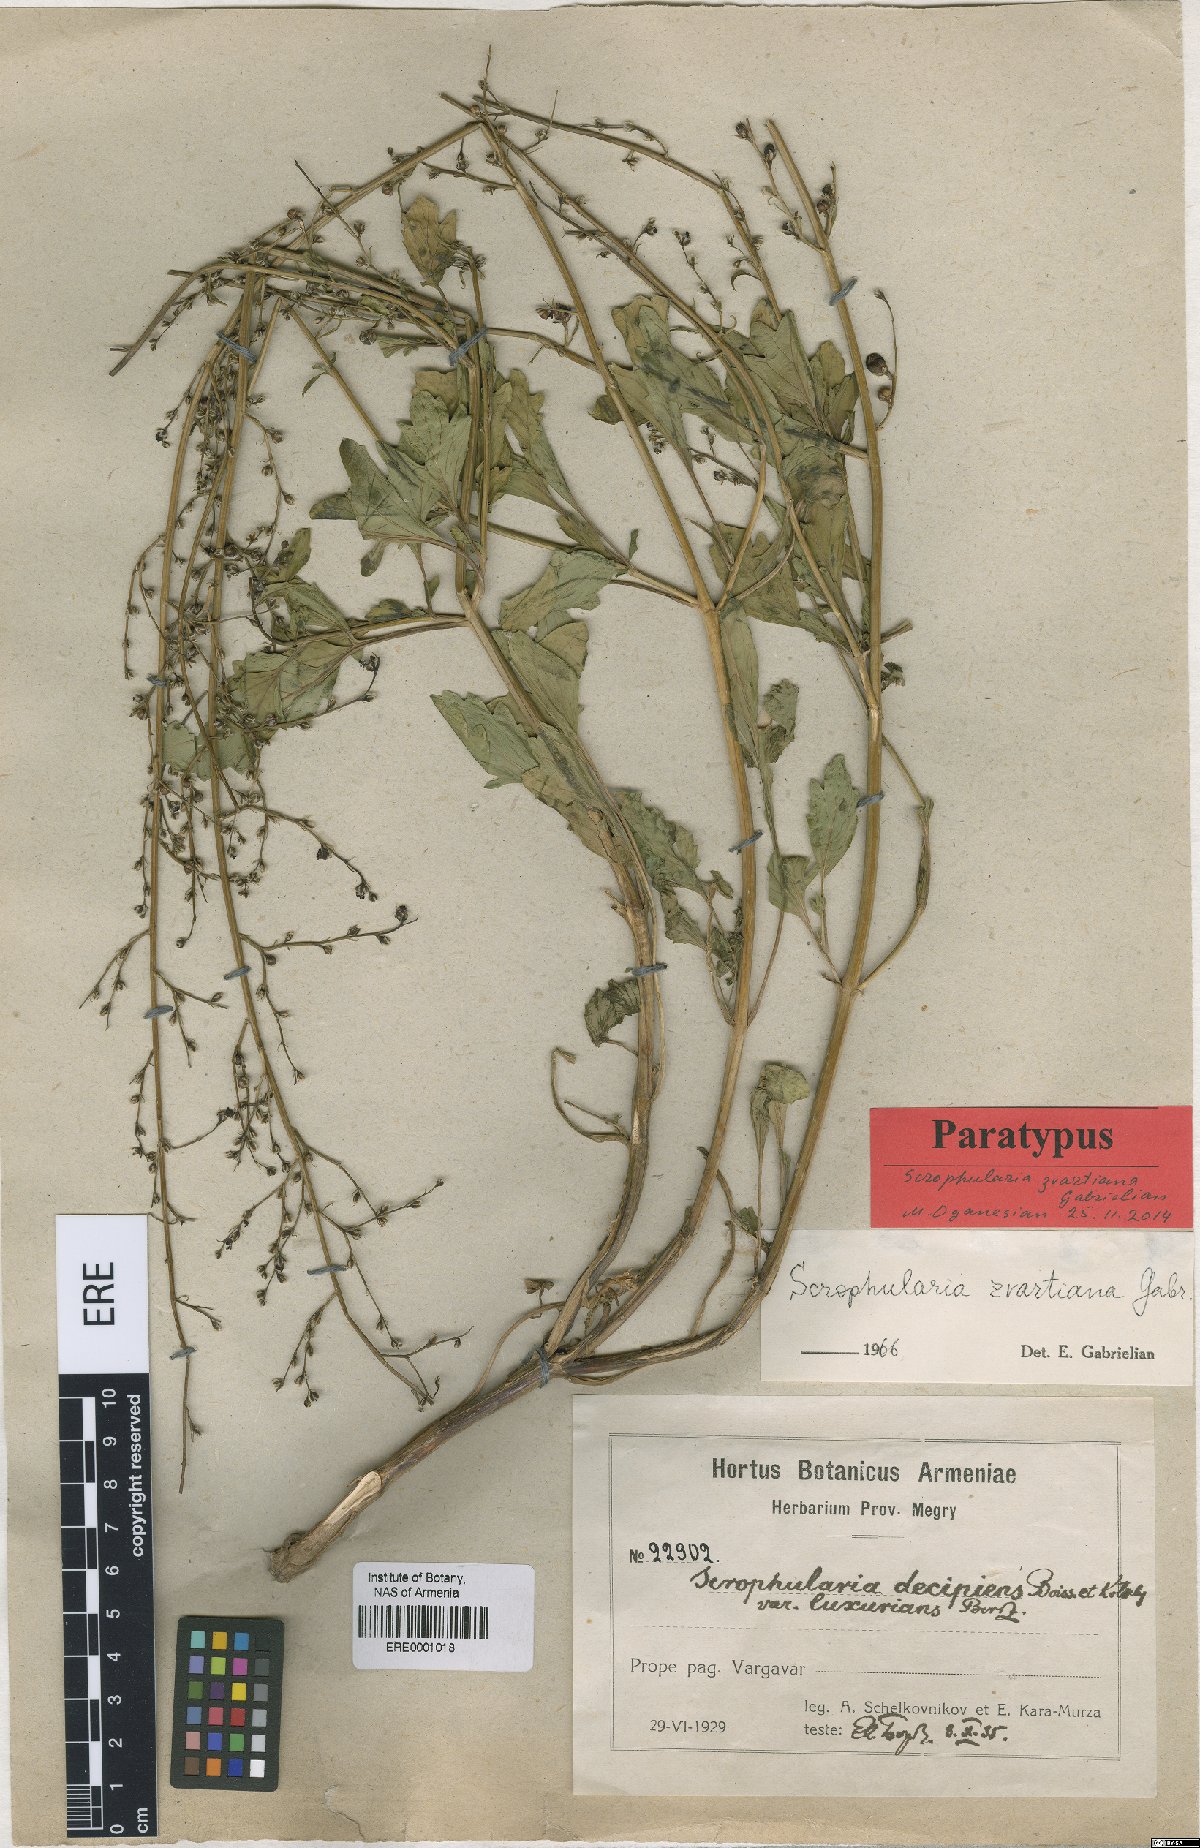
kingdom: Plantae
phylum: Tracheophyta
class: Magnoliopsida
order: Lamiales
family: Scrophulariaceae
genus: Scrophularia
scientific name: Scrophularia zvartiana
